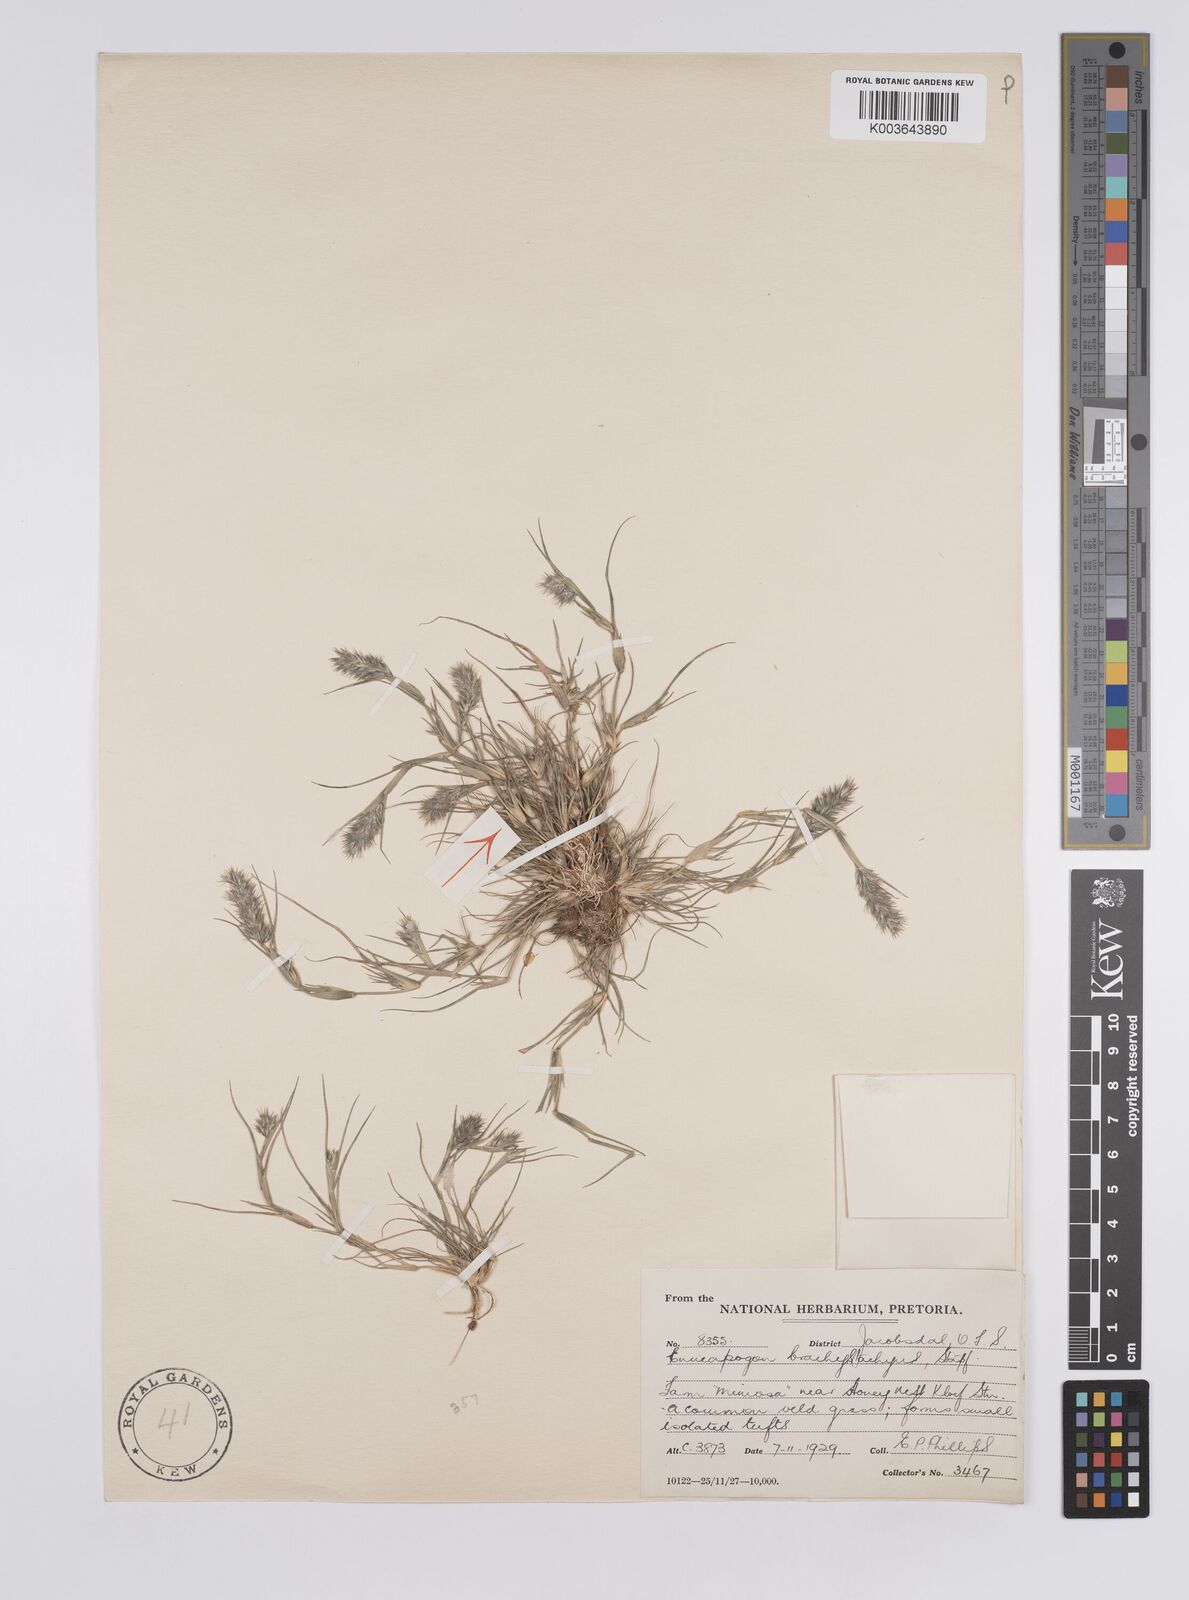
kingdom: Plantae
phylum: Tracheophyta
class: Liliopsida
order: Poales
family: Poaceae
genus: Enneapogon
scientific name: Enneapogon desvauxii
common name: Feather pappus grass
